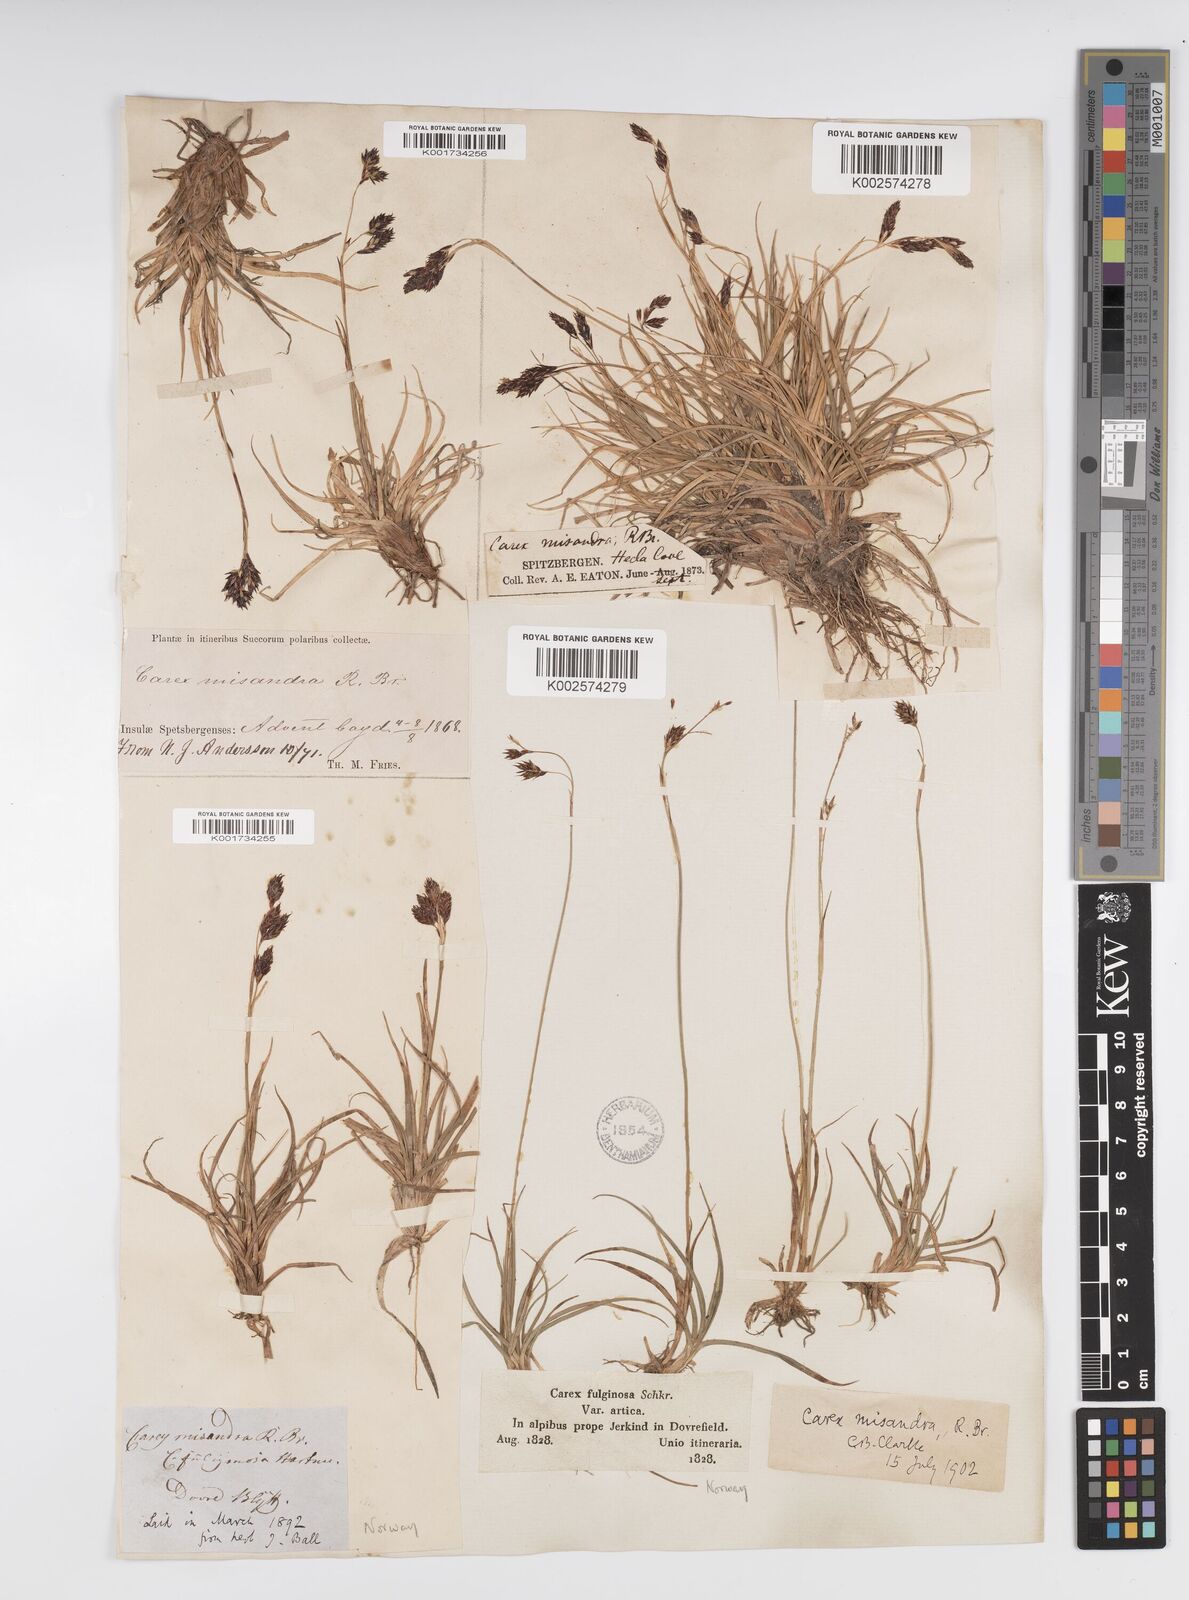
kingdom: Plantae
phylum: Tracheophyta
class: Liliopsida
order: Poales
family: Cyperaceae
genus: Carex
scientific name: Carex fuliginosa
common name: Few-flowered sedge
